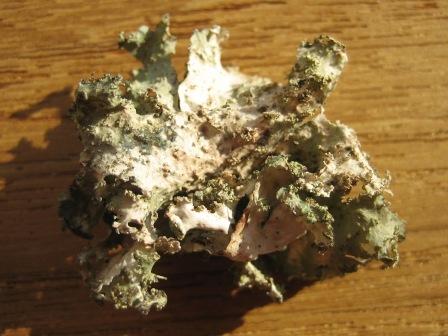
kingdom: Fungi
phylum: Ascomycota
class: Lecanoromycetes
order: Lecanorales
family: Parmeliaceae
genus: Platismatia
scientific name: Platismatia glauca
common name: blågrå papirlav
